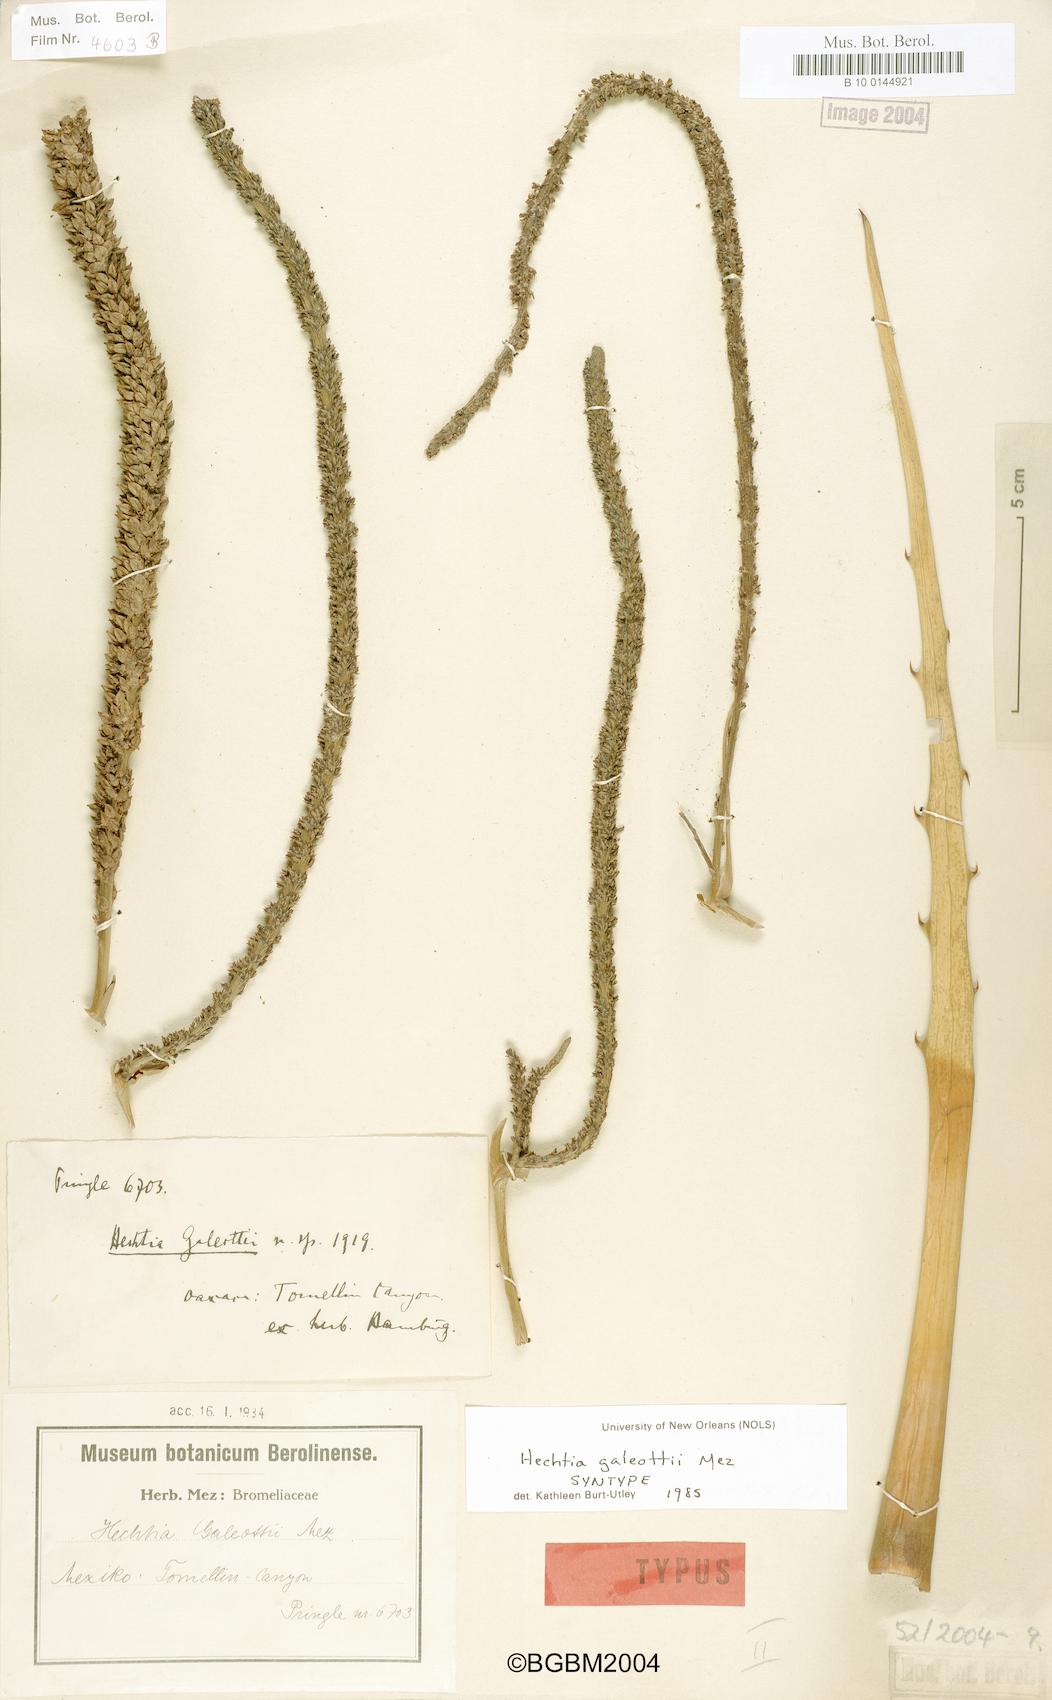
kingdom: Plantae
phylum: Tracheophyta
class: Liliopsida
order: Poales
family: Bromeliaceae
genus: Hechtia
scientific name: Hechtia galeottii
